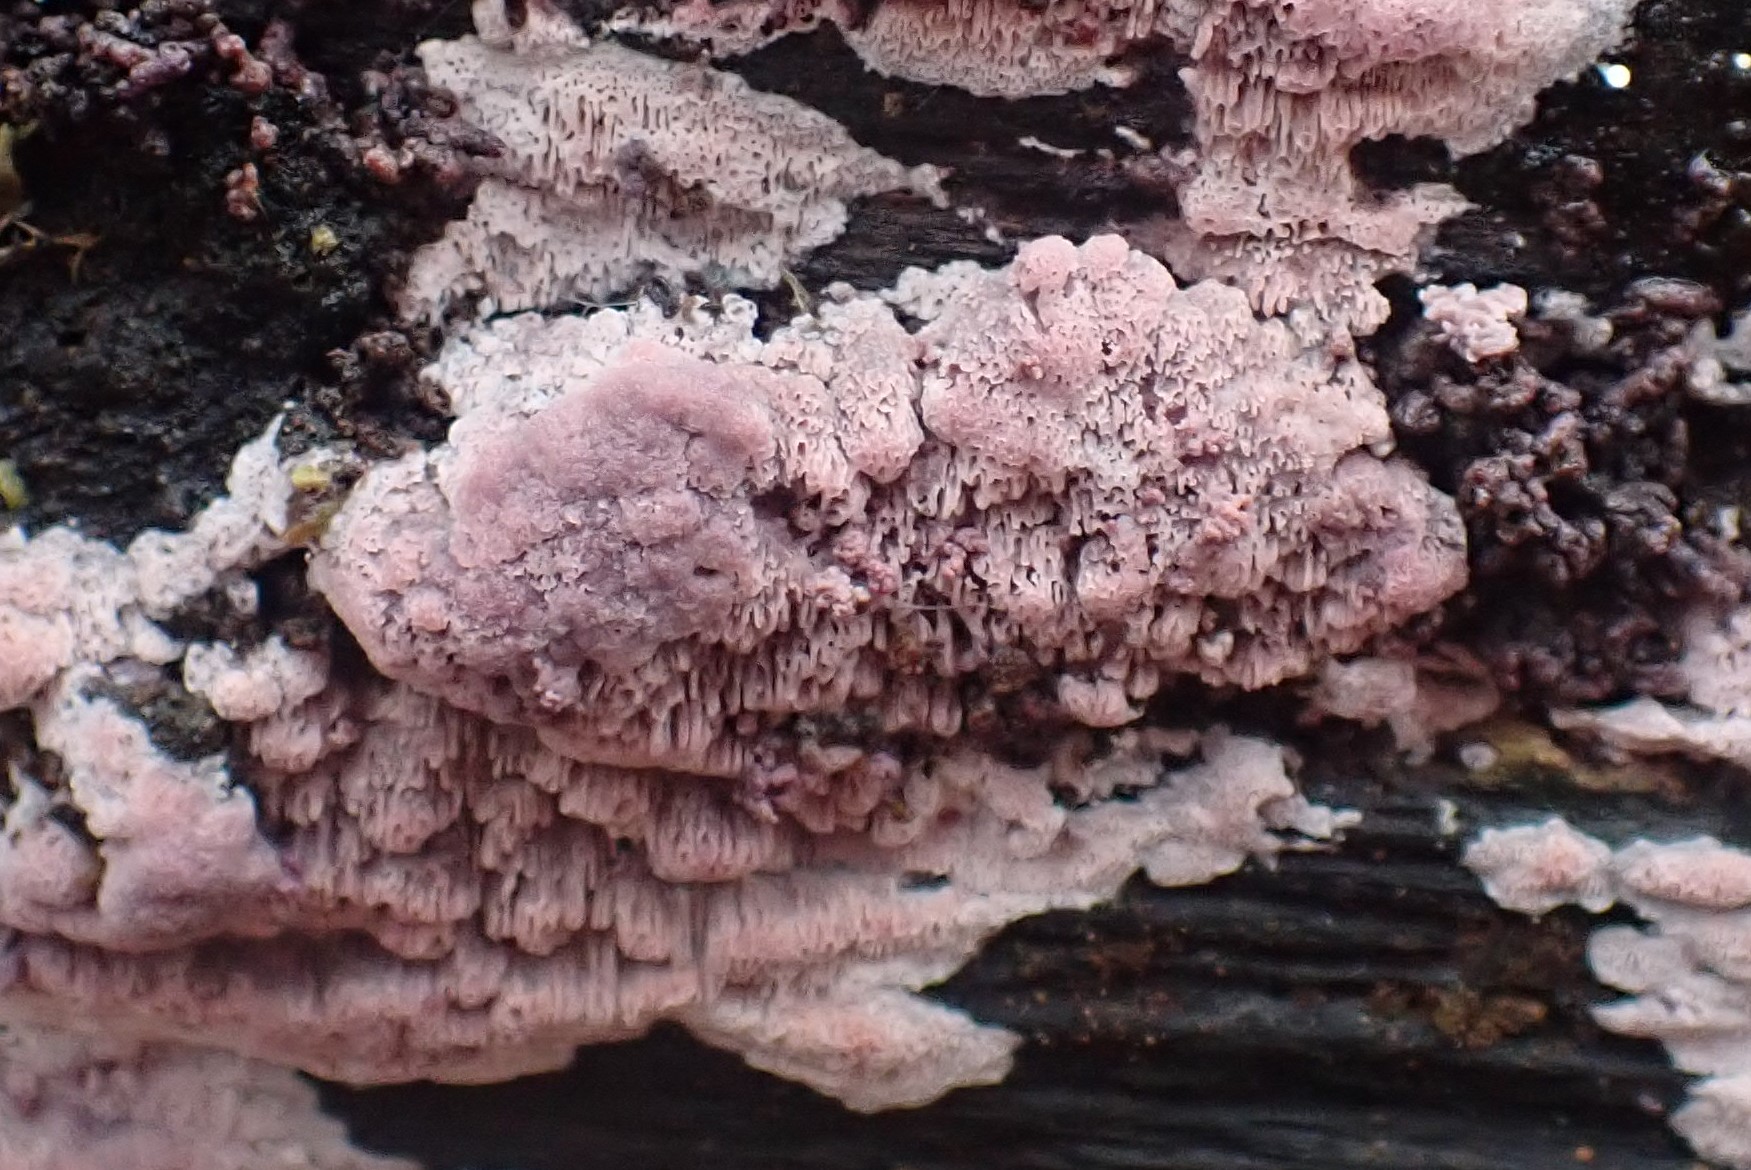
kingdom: Fungi
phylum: Basidiomycota
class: Agaricomycetes
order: Polyporales
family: Irpicaceae
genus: Ceriporia
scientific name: Ceriporia
